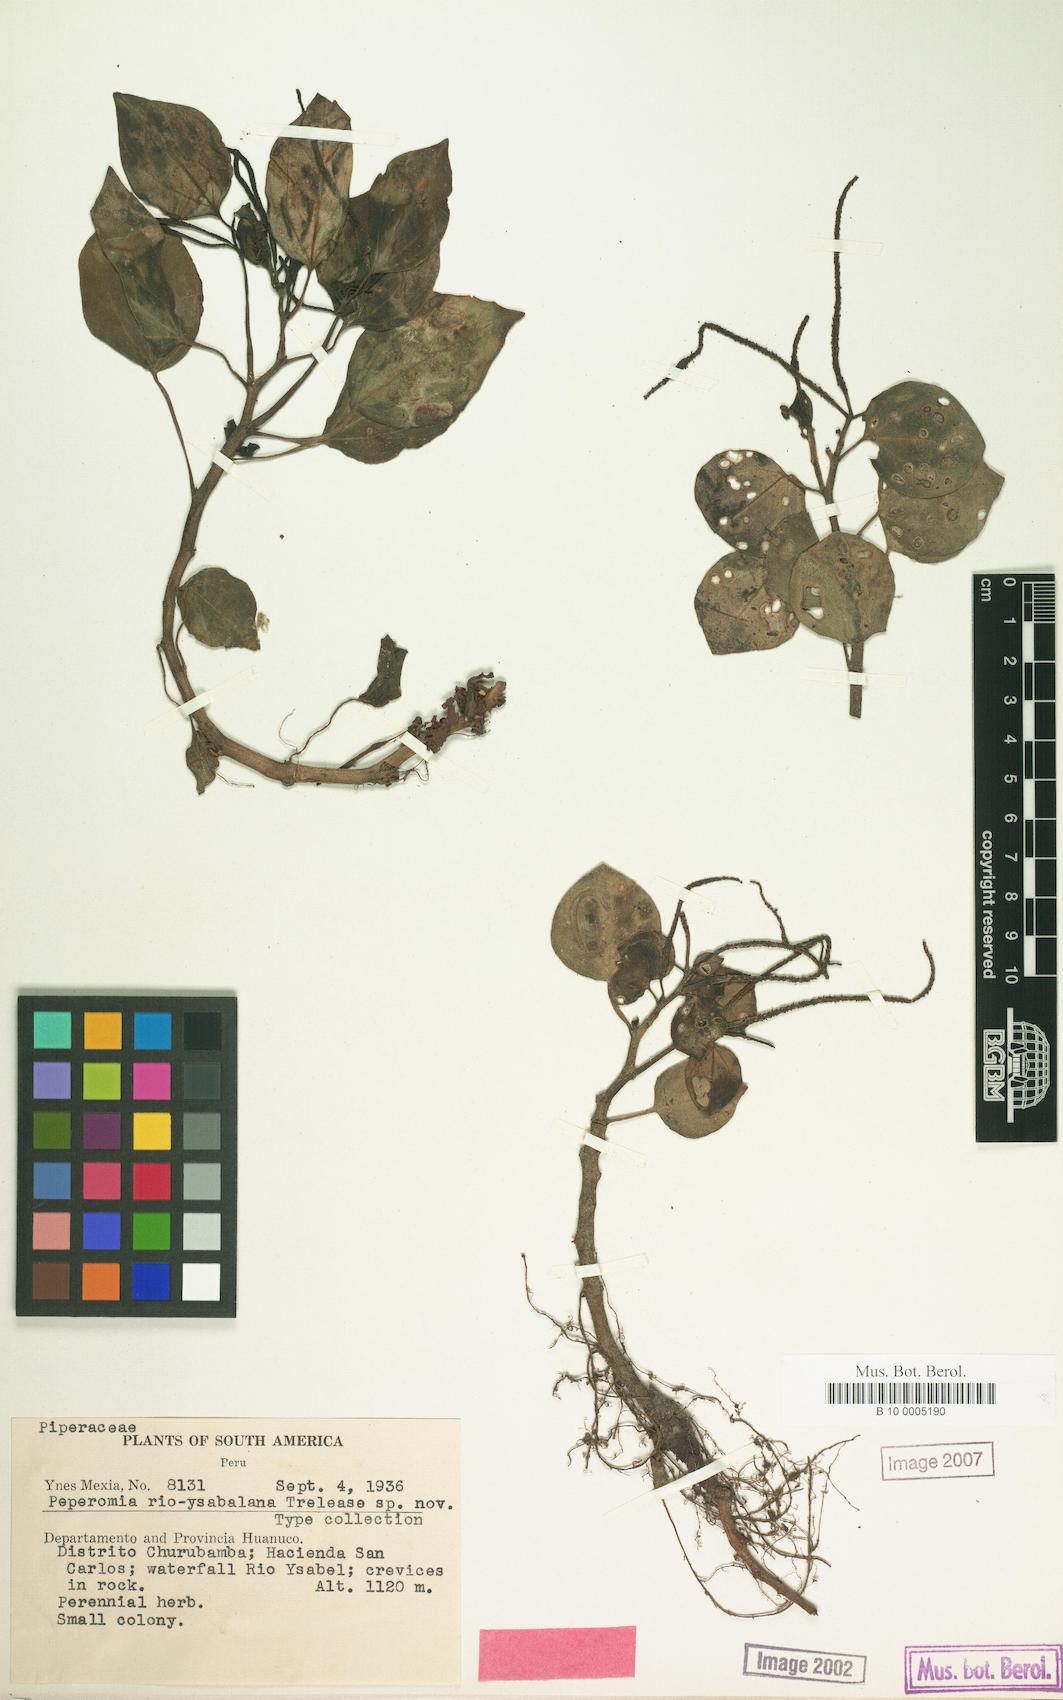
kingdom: Plantae
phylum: Tracheophyta
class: Magnoliopsida
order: Piperales
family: Piperaceae
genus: Peperomia
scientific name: Peperomia
